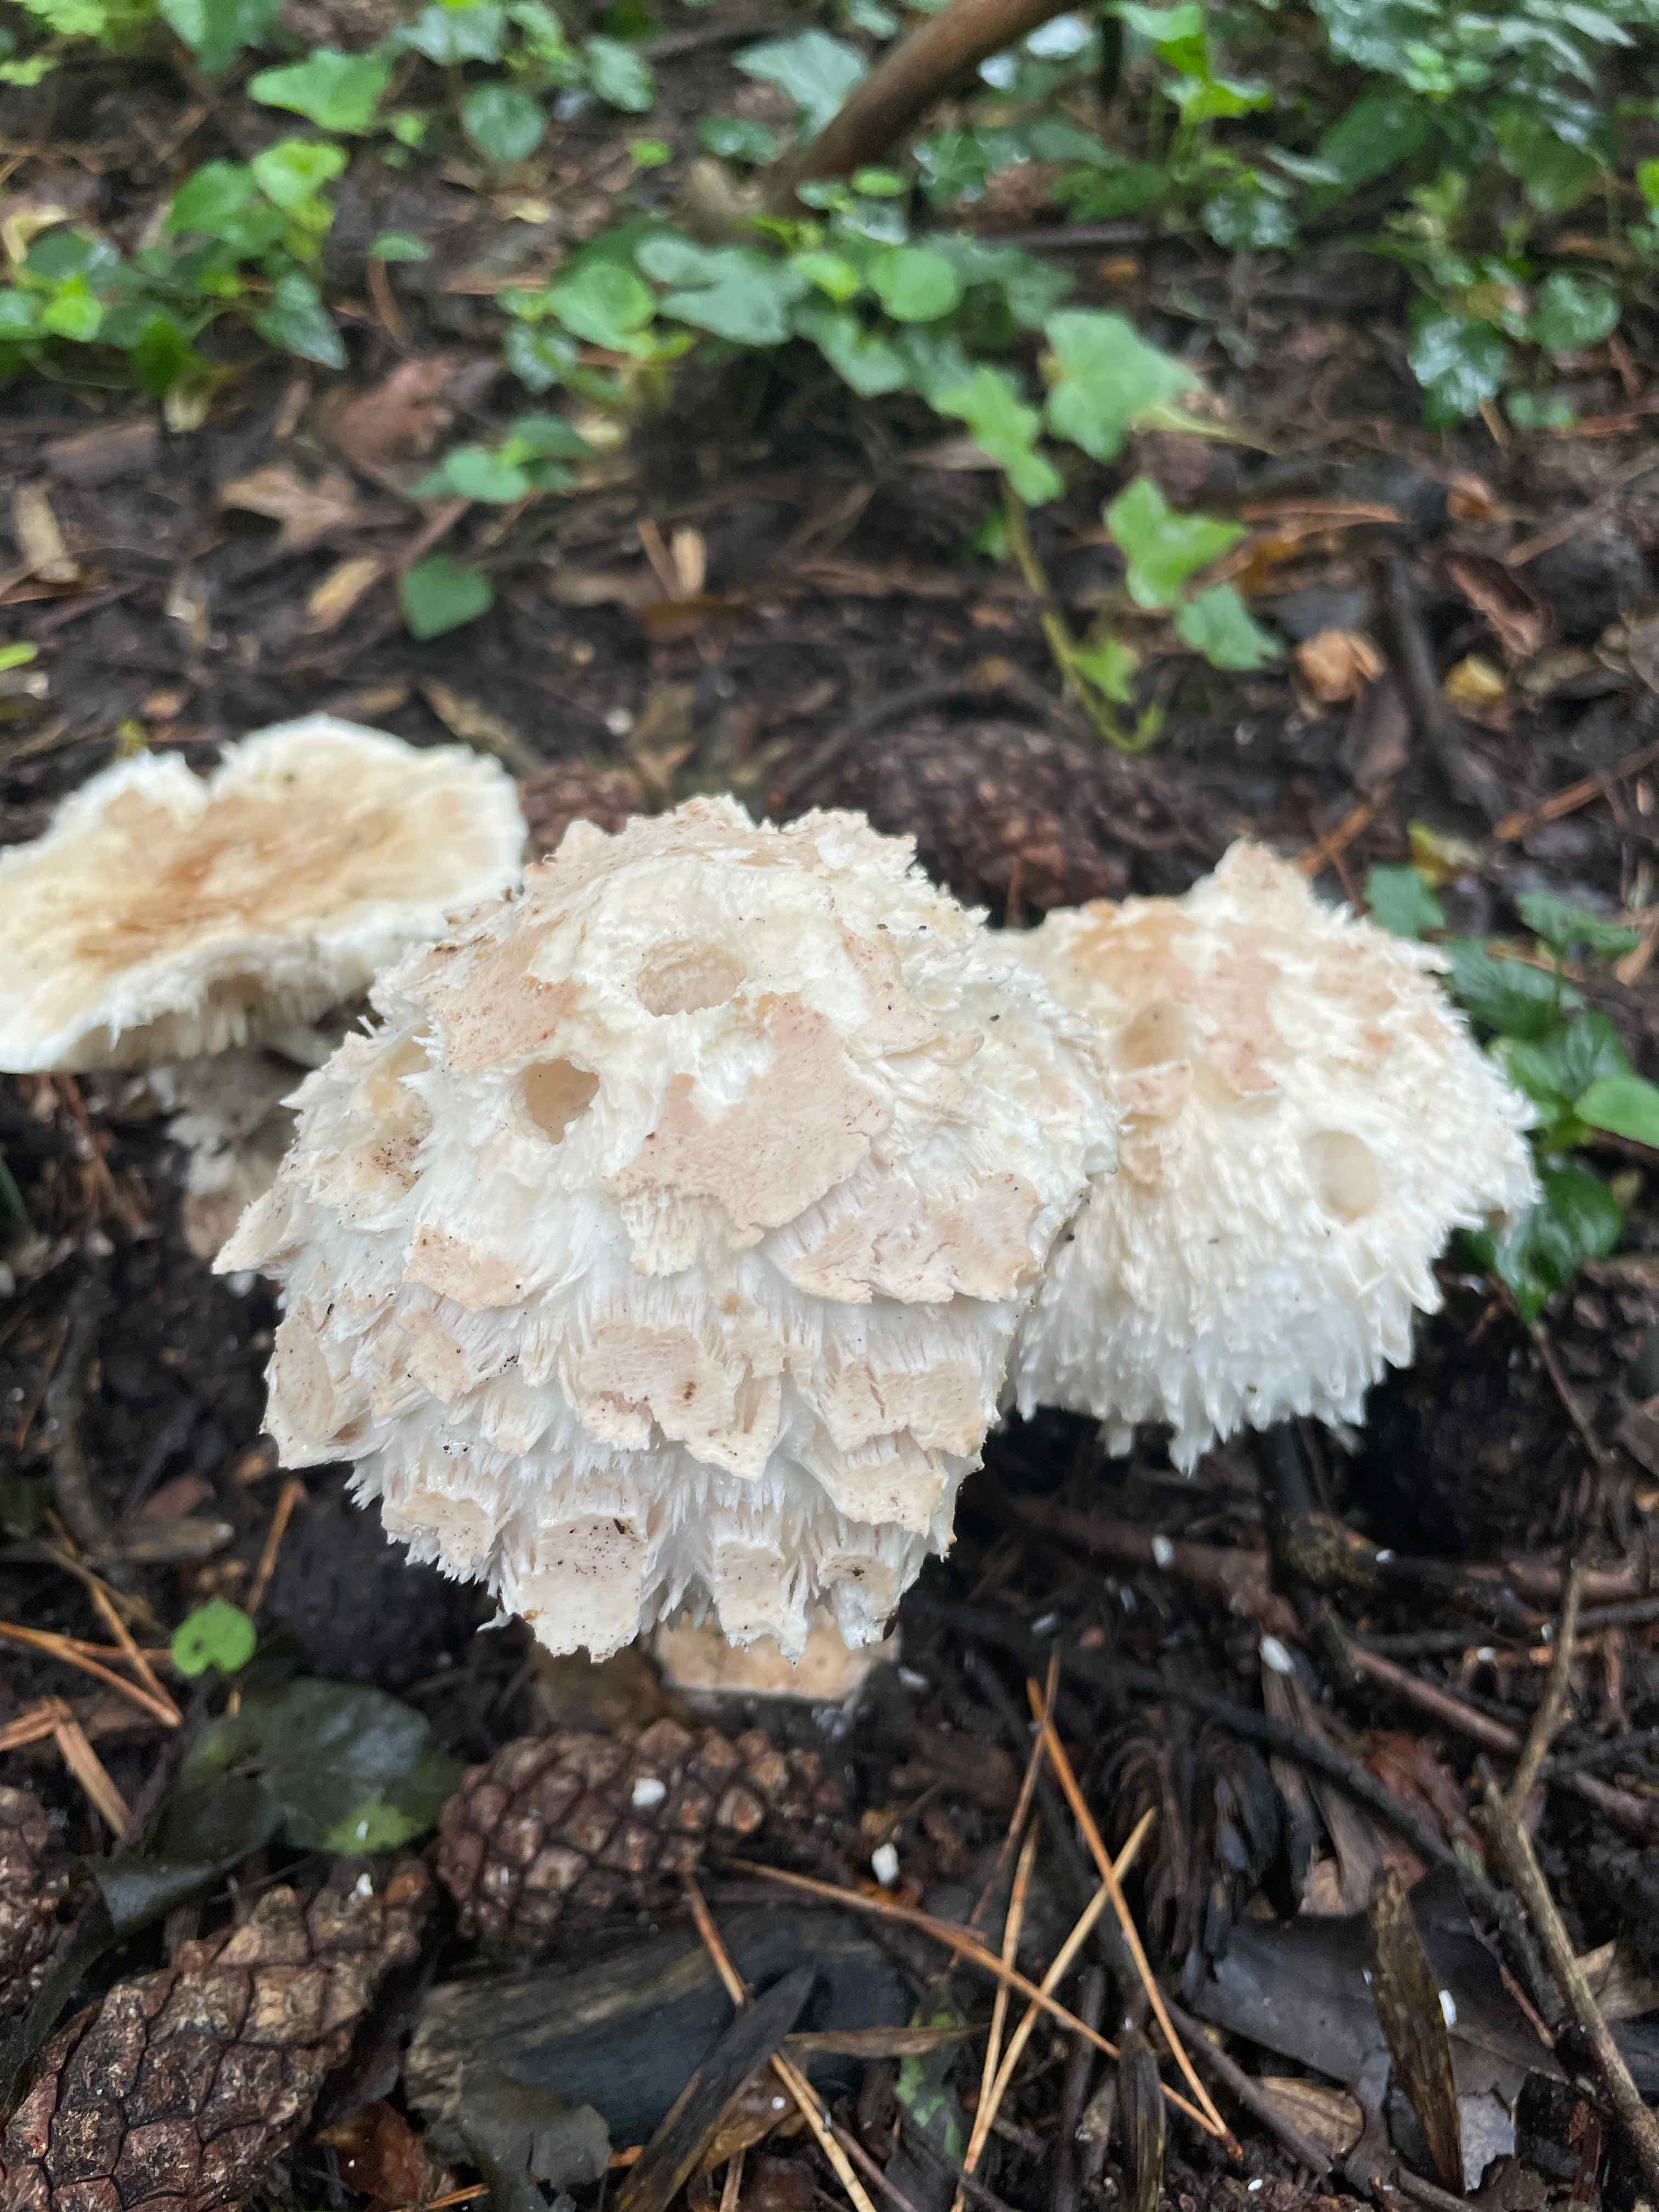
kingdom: Fungi
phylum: Basidiomycota
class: Agaricomycetes
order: Agaricales
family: Agaricaceae
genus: Chlorophyllum
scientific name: Chlorophyllum
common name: rabarberhat
